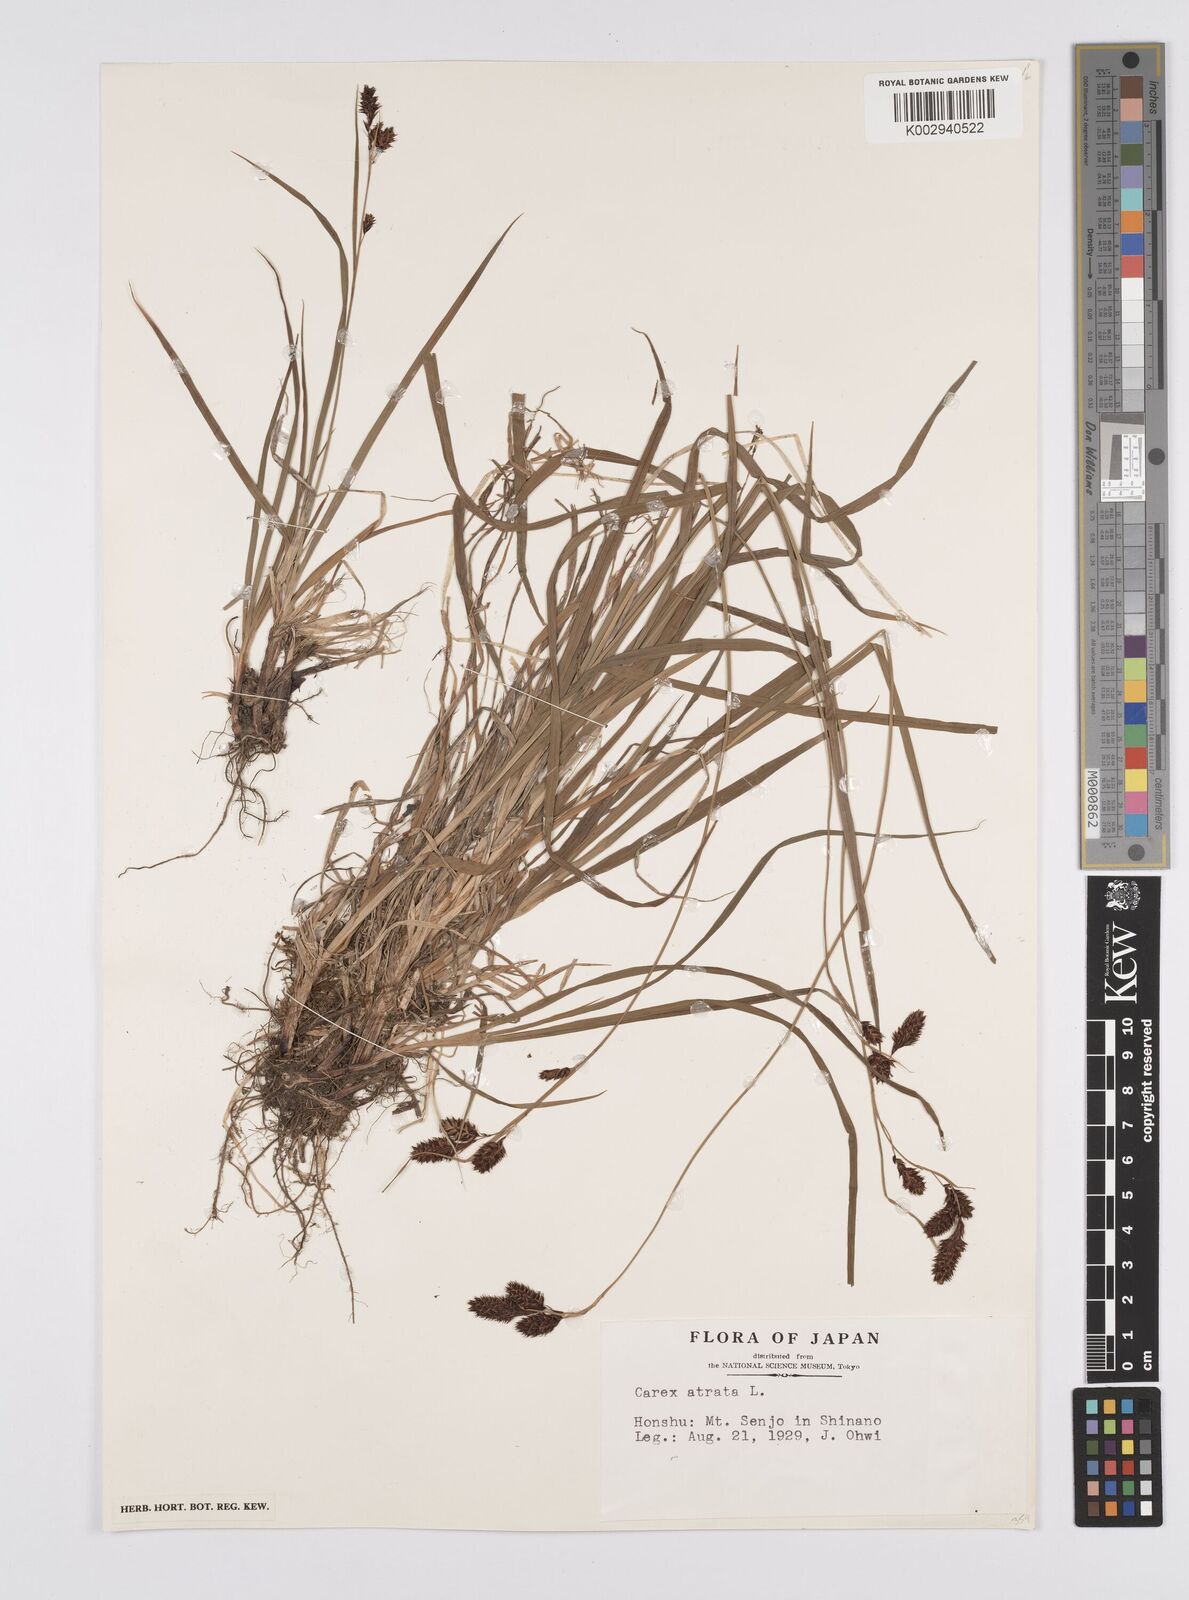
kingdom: Plantae
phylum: Tracheophyta
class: Liliopsida
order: Poales
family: Cyperaceae
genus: Carex
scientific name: Carex atrata
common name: Black alpine sedge
